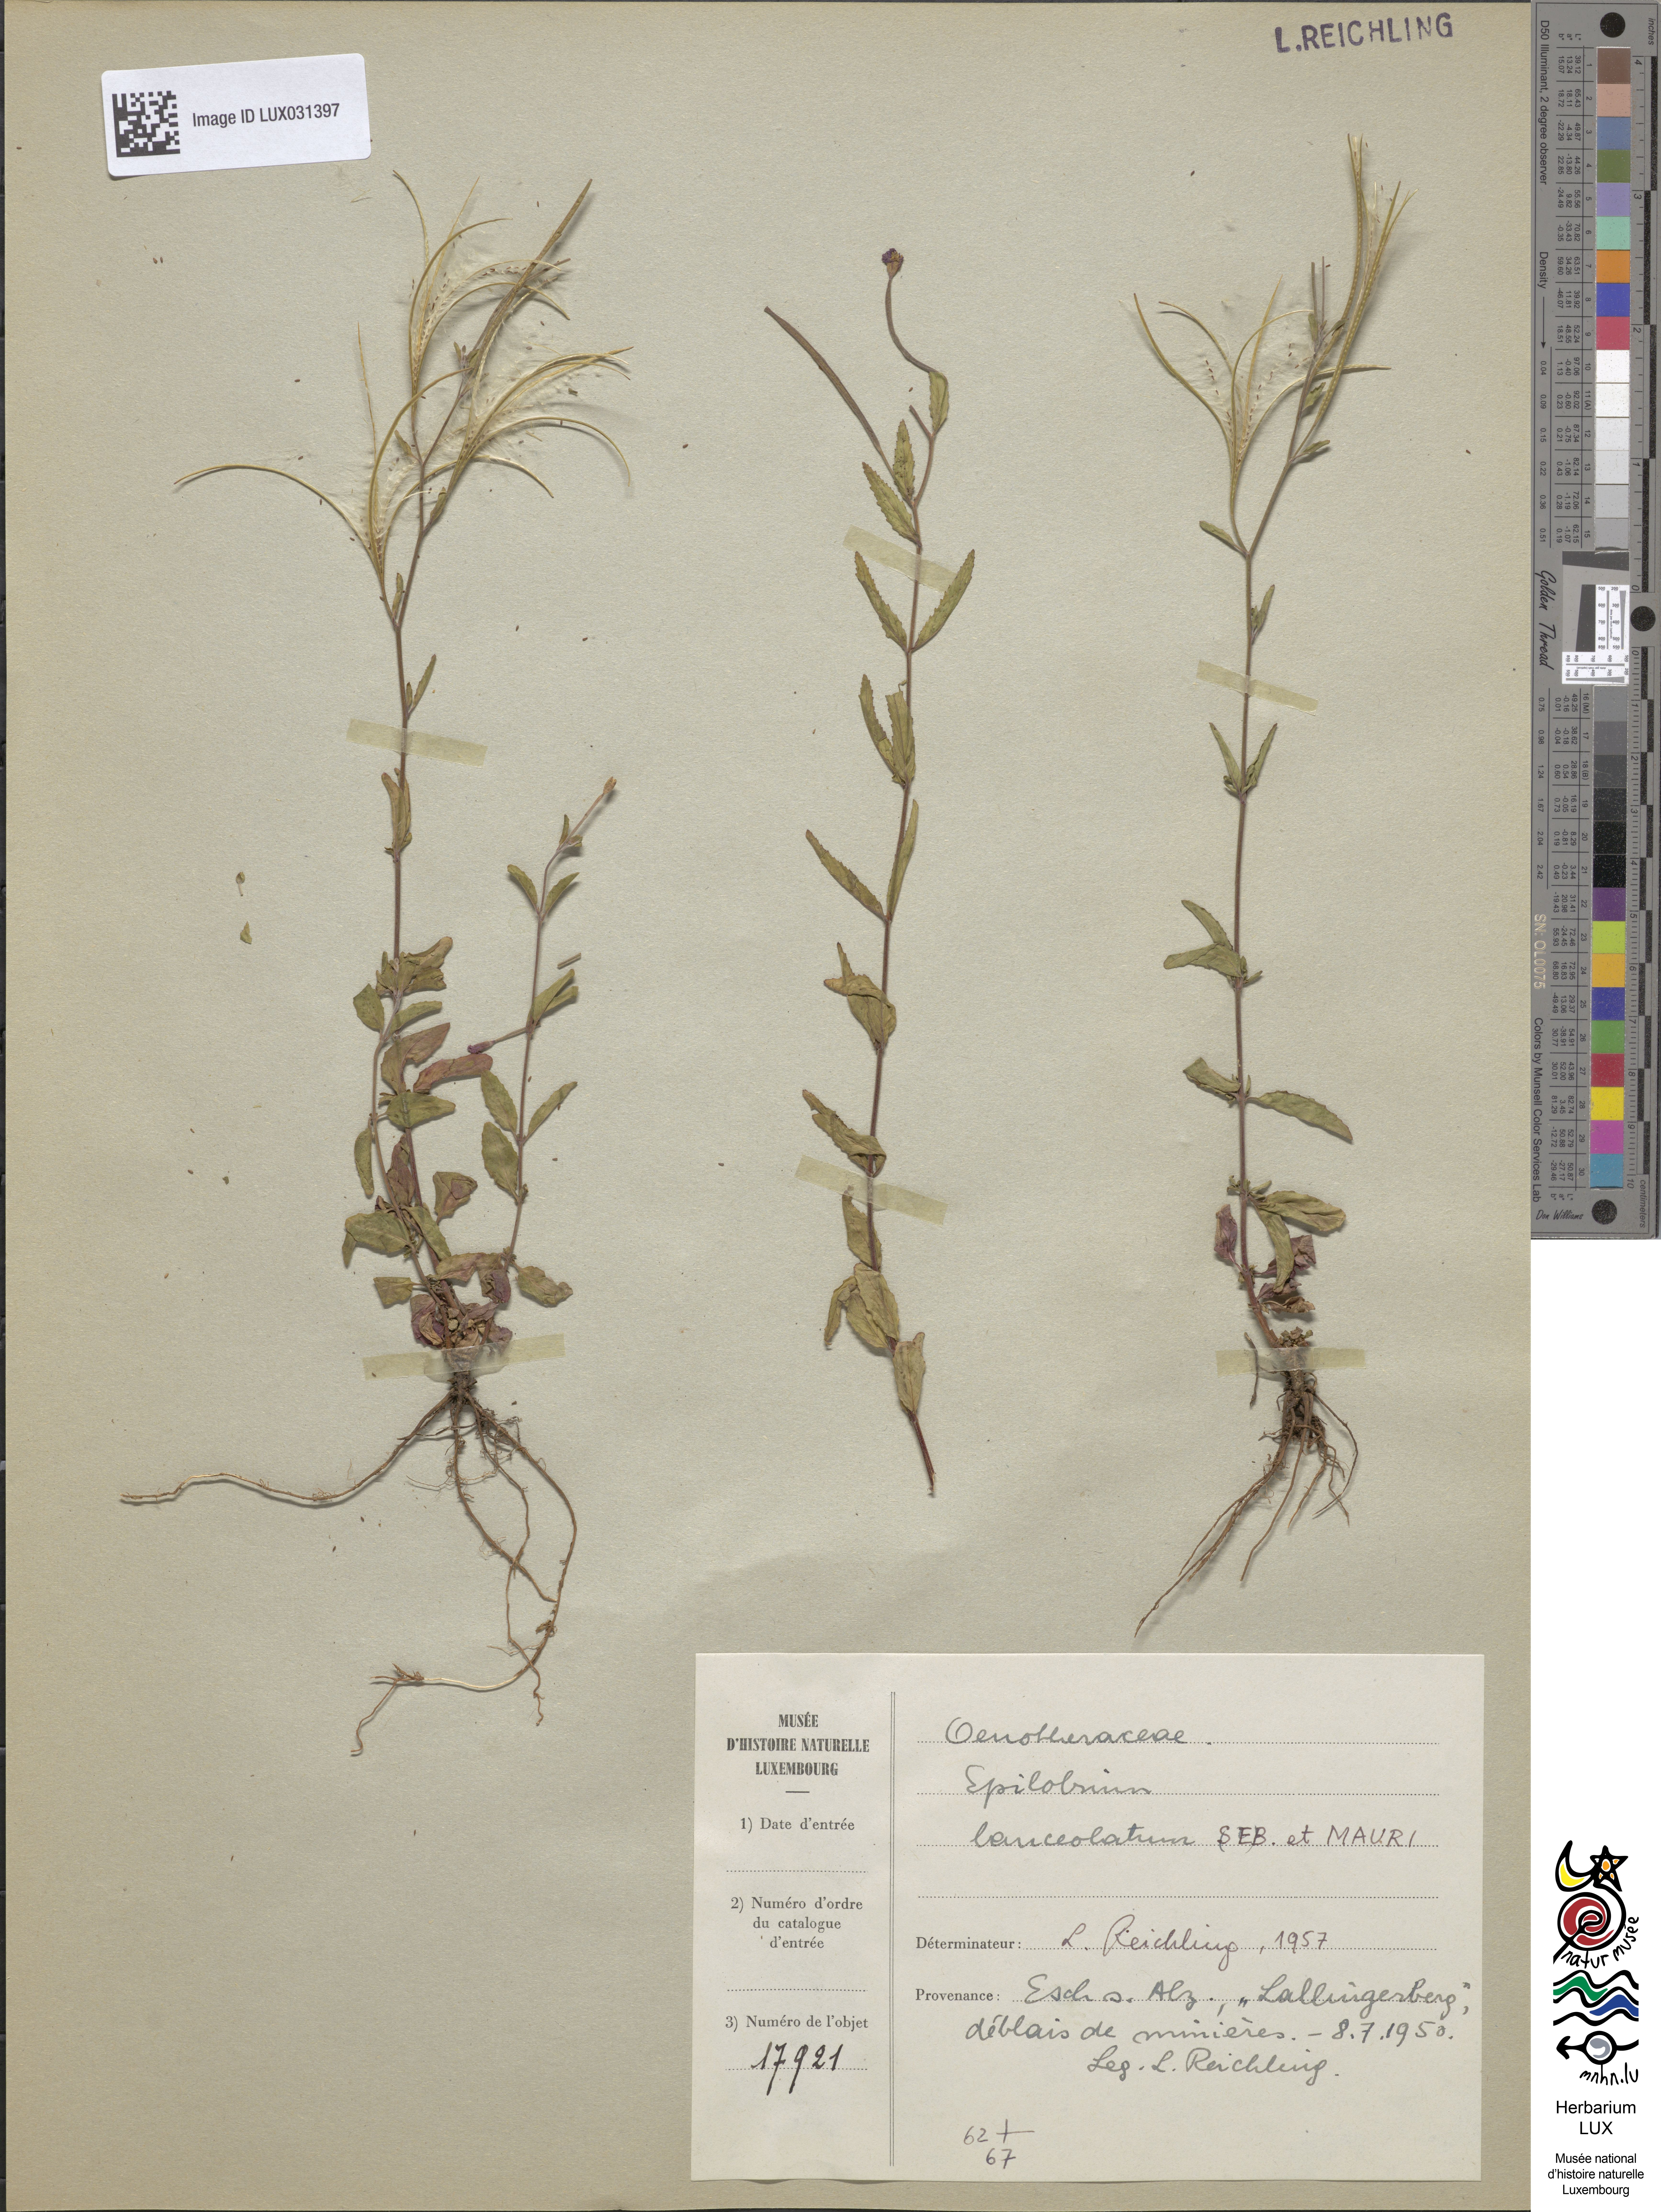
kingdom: Plantae
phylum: Tracheophyta
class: Magnoliopsida
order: Myrtales
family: Onagraceae
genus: Epilobium
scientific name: Epilobium lanceolatum
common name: Spear-leaved willowherb
